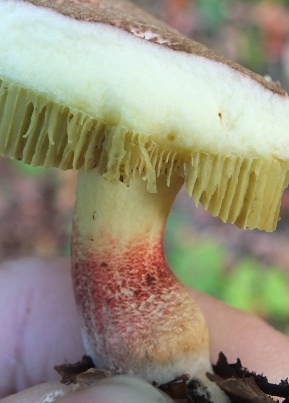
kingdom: Fungi
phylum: Basidiomycota
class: Agaricomycetes
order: Boletales
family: Boletaceae
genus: Xerocomellus
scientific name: Xerocomellus chrysenteron
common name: rødsprukken rørhat
